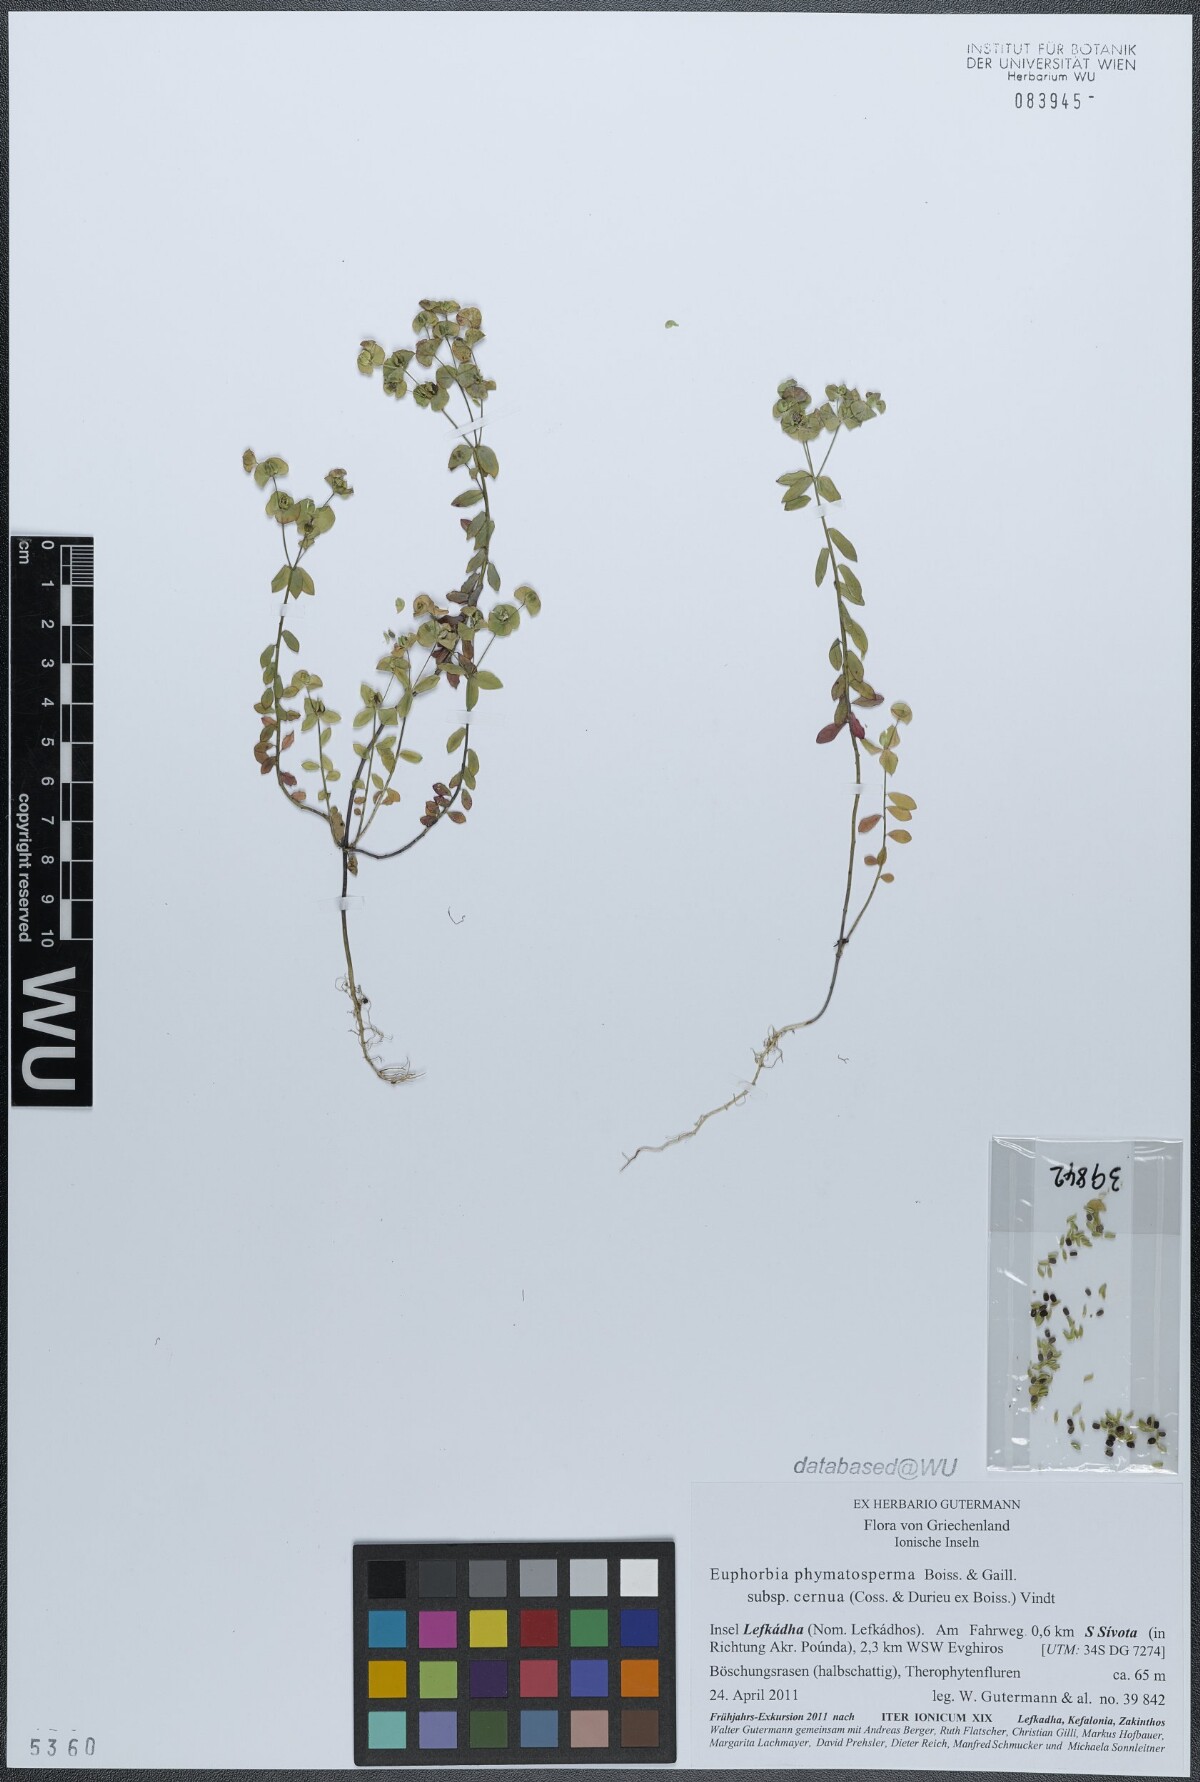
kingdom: Plantae
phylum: Tracheophyta
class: Magnoliopsida
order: Malpighiales
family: Euphorbiaceae
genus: Euphorbia
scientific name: Euphorbia phymatosperma
